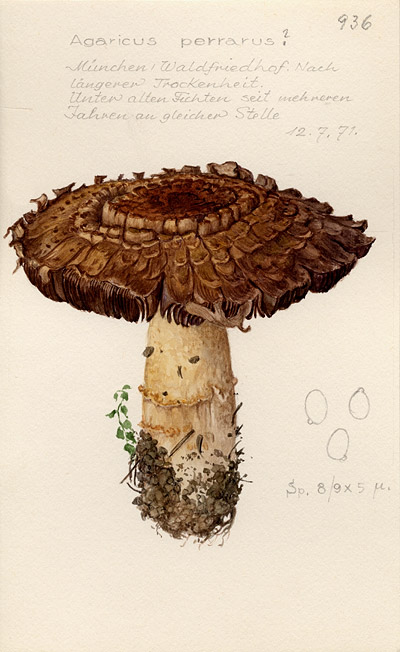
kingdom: Fungi
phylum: Basidiomycota
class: Agaricomycetes
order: Agaricales
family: Agaricaceae
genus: Agaricus
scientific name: Agaricus augustus
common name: Prince
